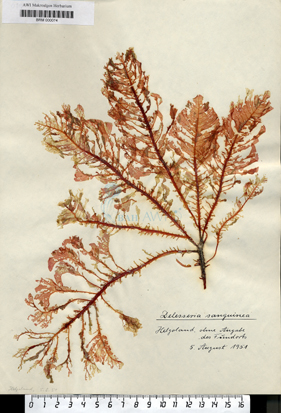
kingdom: Plantae
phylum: Rhodophyta
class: Florideophyceae
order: Ceramiales
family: Delesseriaceae
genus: Delesseria
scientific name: Delesseria sanguinea
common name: Sea beech
